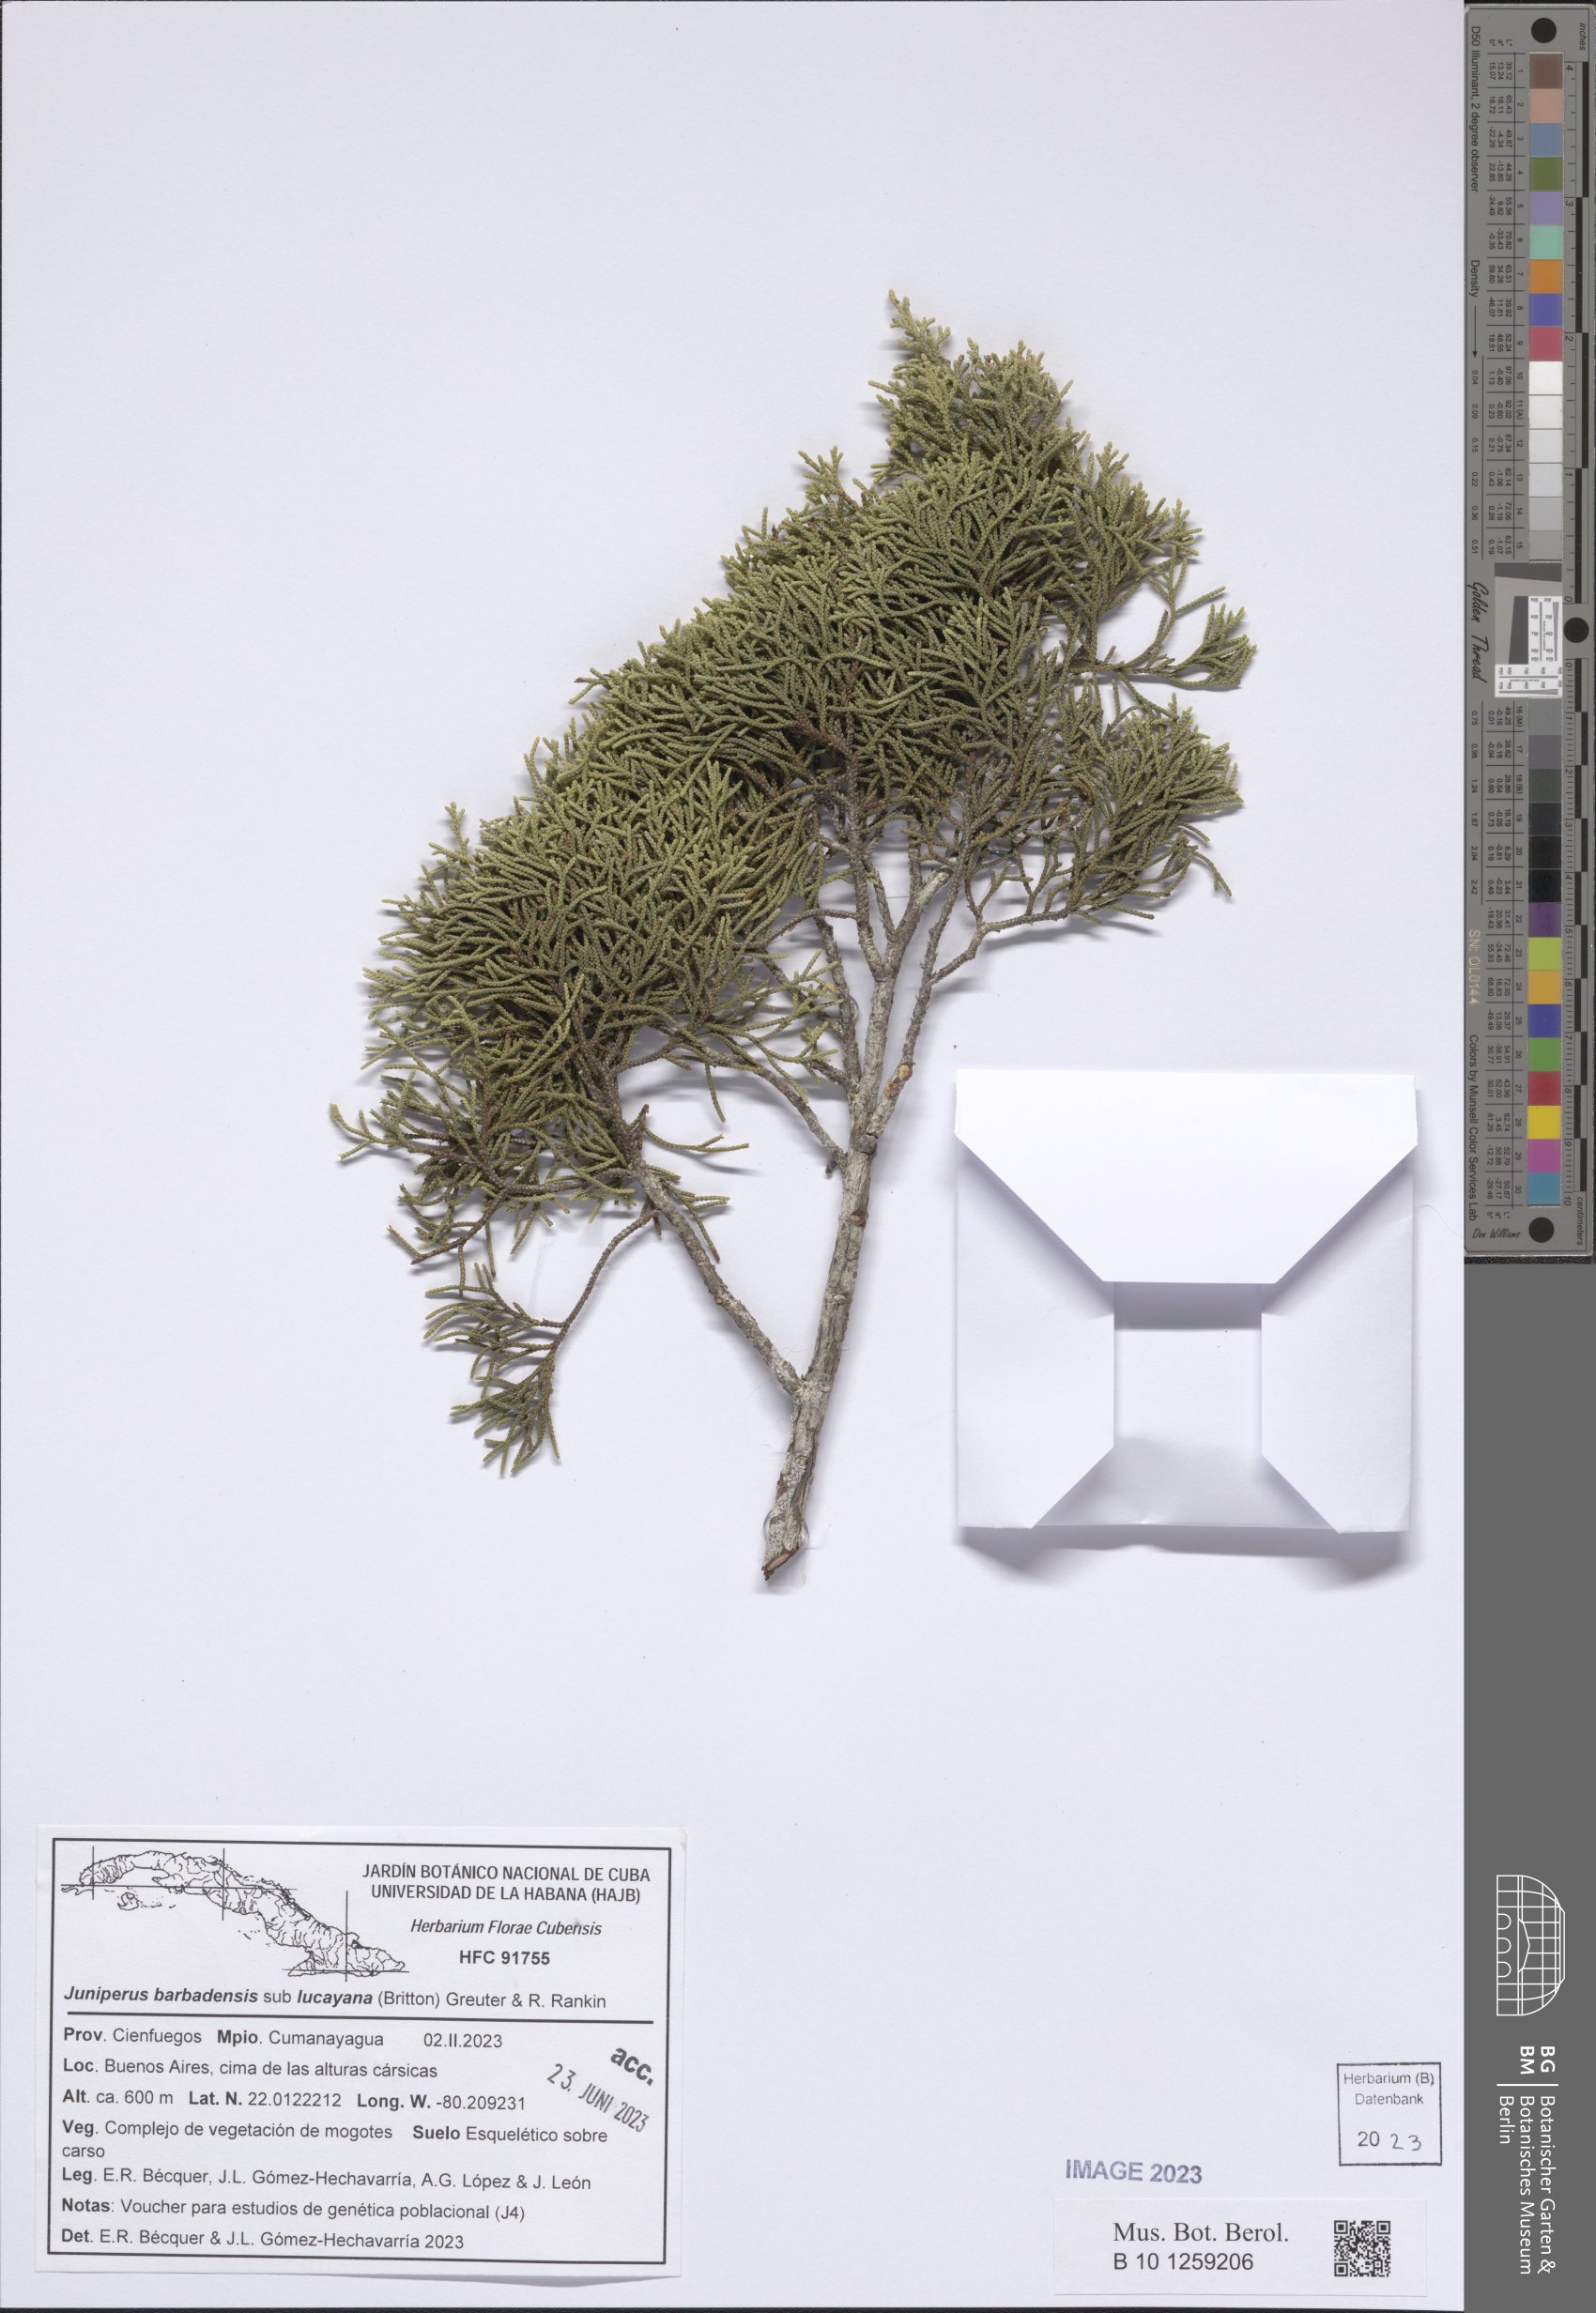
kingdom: Plantae
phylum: Tracheophyta
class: Pinopsida
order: Pinales
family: Cupressaceae
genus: Juniperus
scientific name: Juniperus barbadensis
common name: West indies juniper
